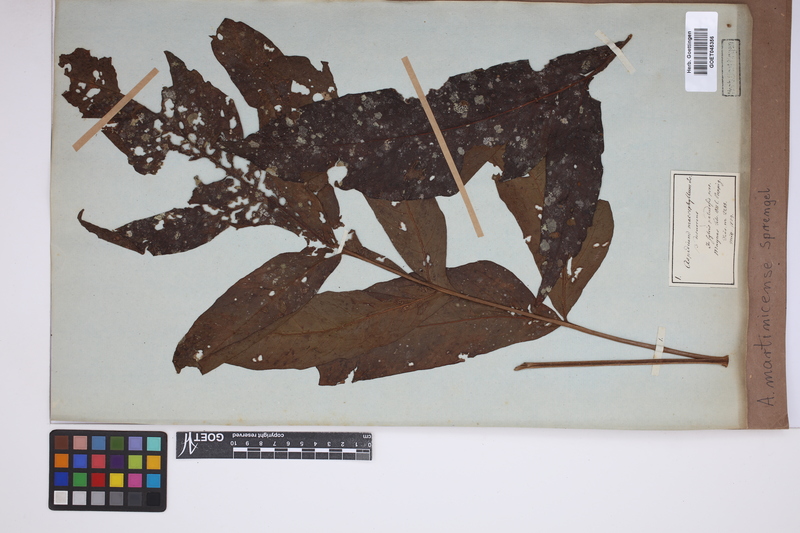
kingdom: Plantae
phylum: Tracheophyta
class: Polypodiopsida
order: Polypodiales
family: Tectariaceae
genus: Tectaria
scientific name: Tectaria incisa
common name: Incised halberd fern
